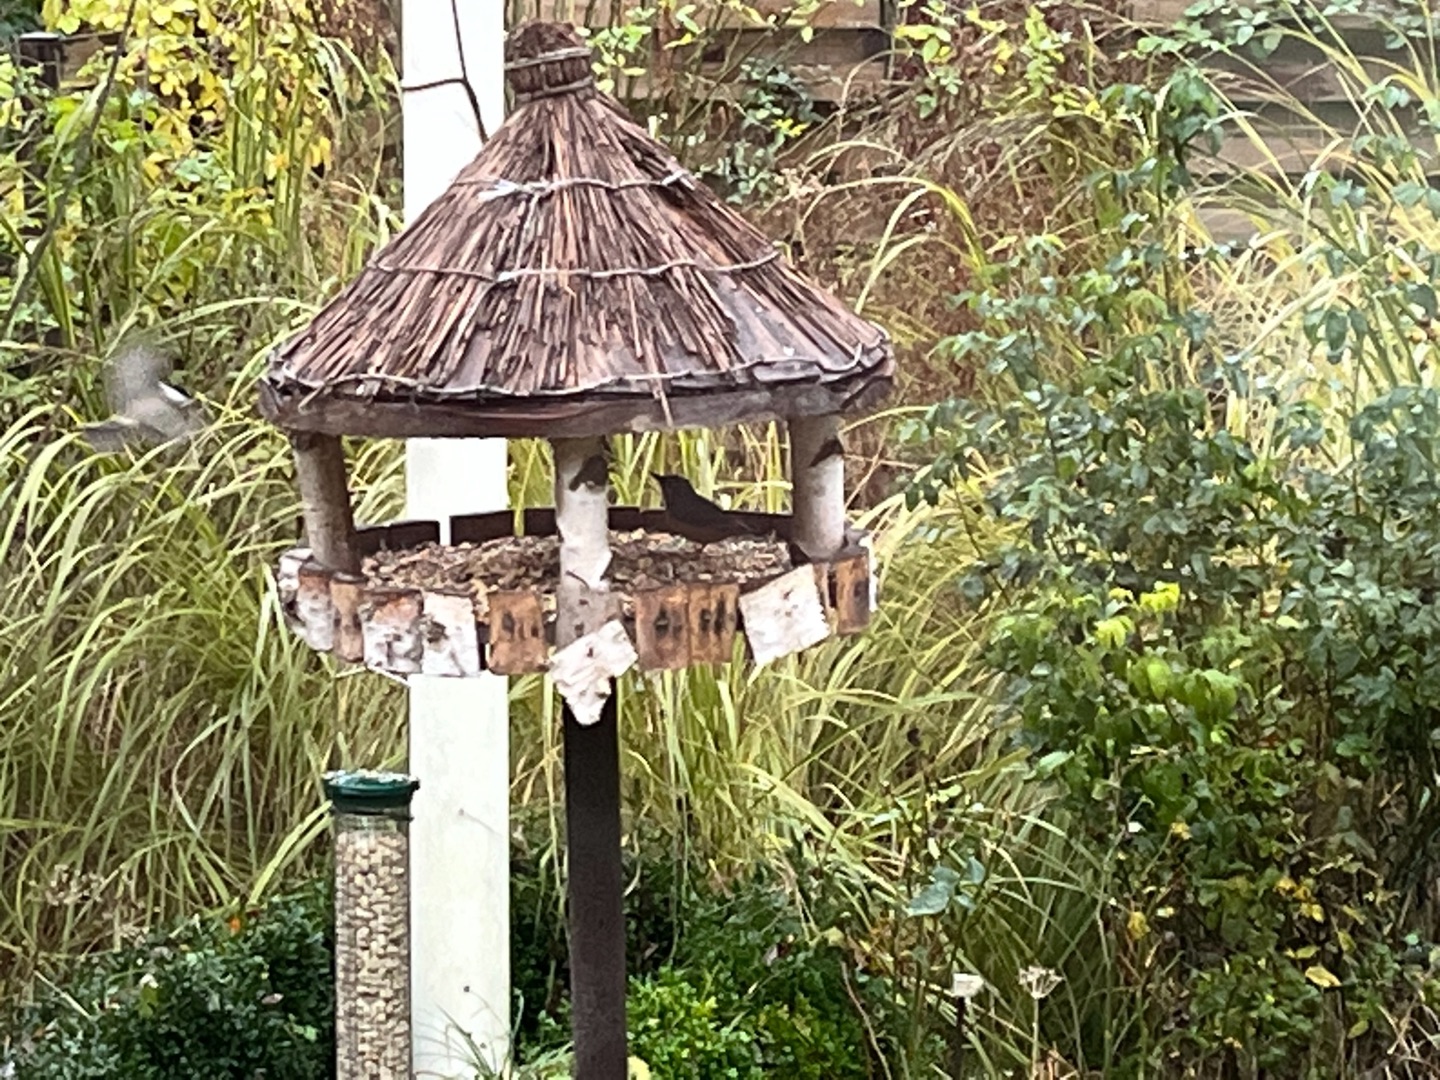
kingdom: Animalia
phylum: Chordata
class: Aves
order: Passeriformes
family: Sittidae
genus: Sitta
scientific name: Sitta europaea
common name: Spætmejse
